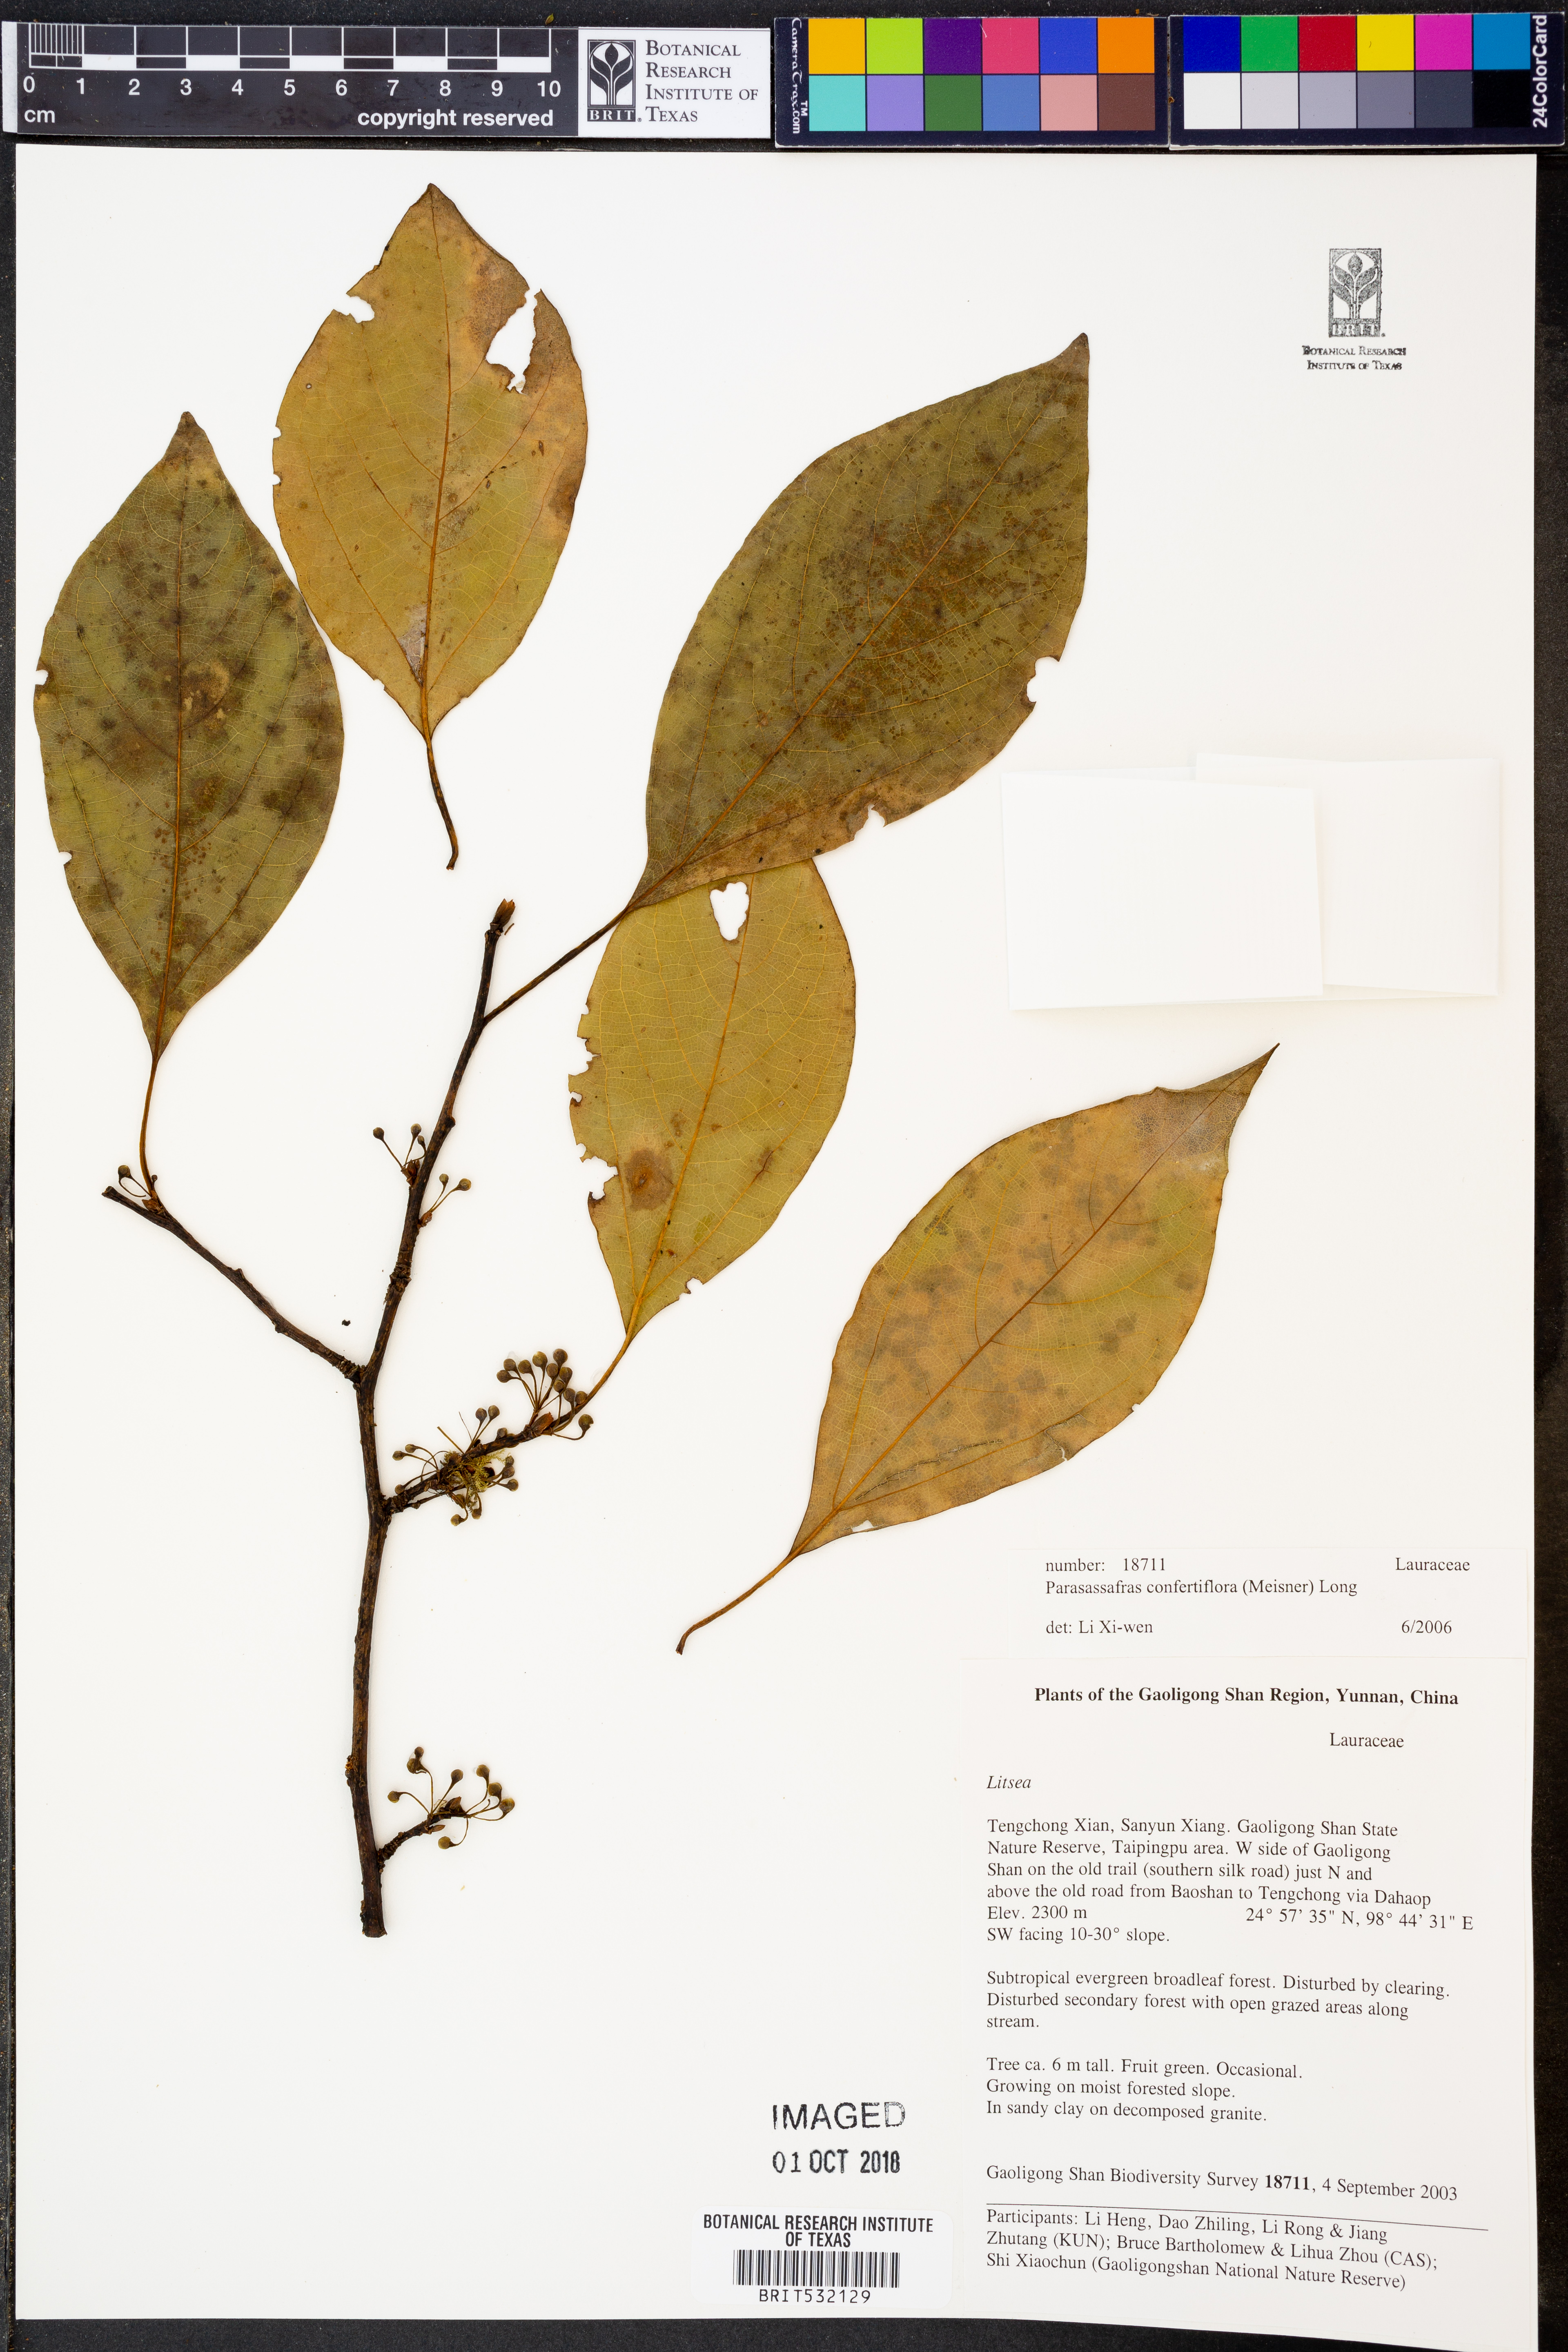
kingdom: Plantae
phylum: Tracheophyta
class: Magnoliopsida
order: Laurales
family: Lauraceae
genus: Parasassafras
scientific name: Parasassafras confertiflora
